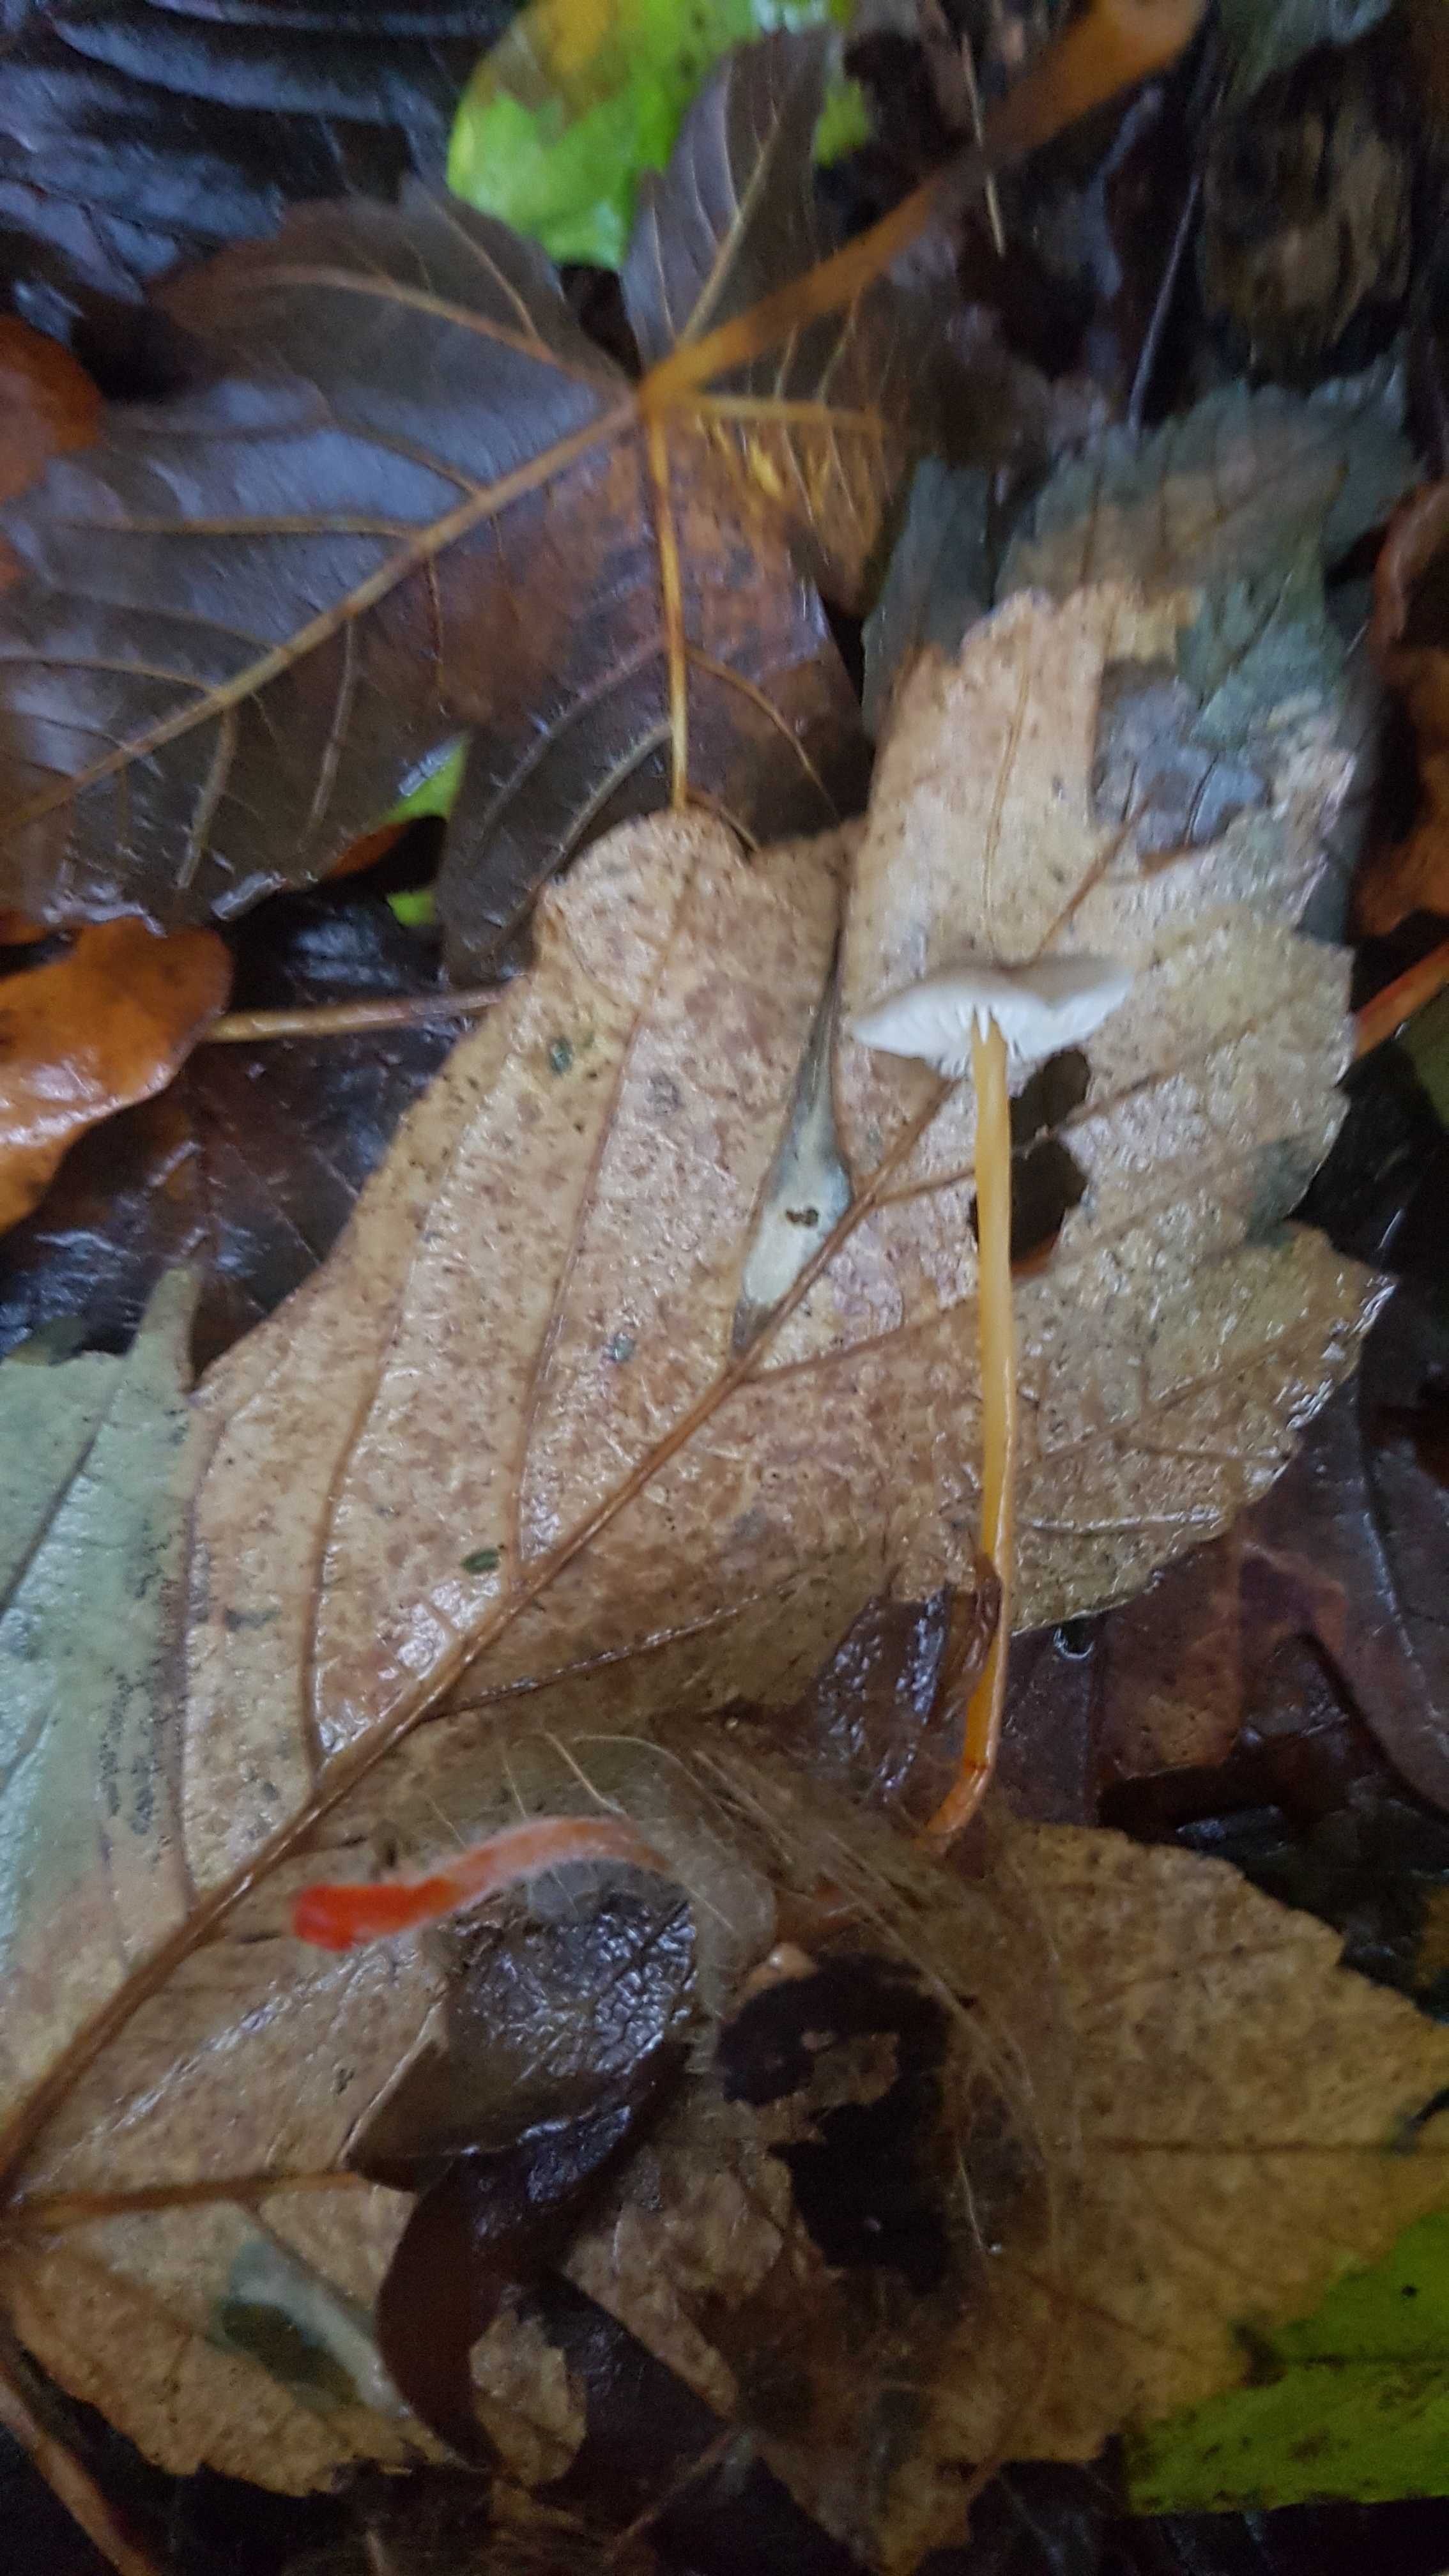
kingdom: Fungi
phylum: Basidiomycota
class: Agaricomycetes
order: Agaricales
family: Mycenaceae
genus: Mycena
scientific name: Mycena crocata
